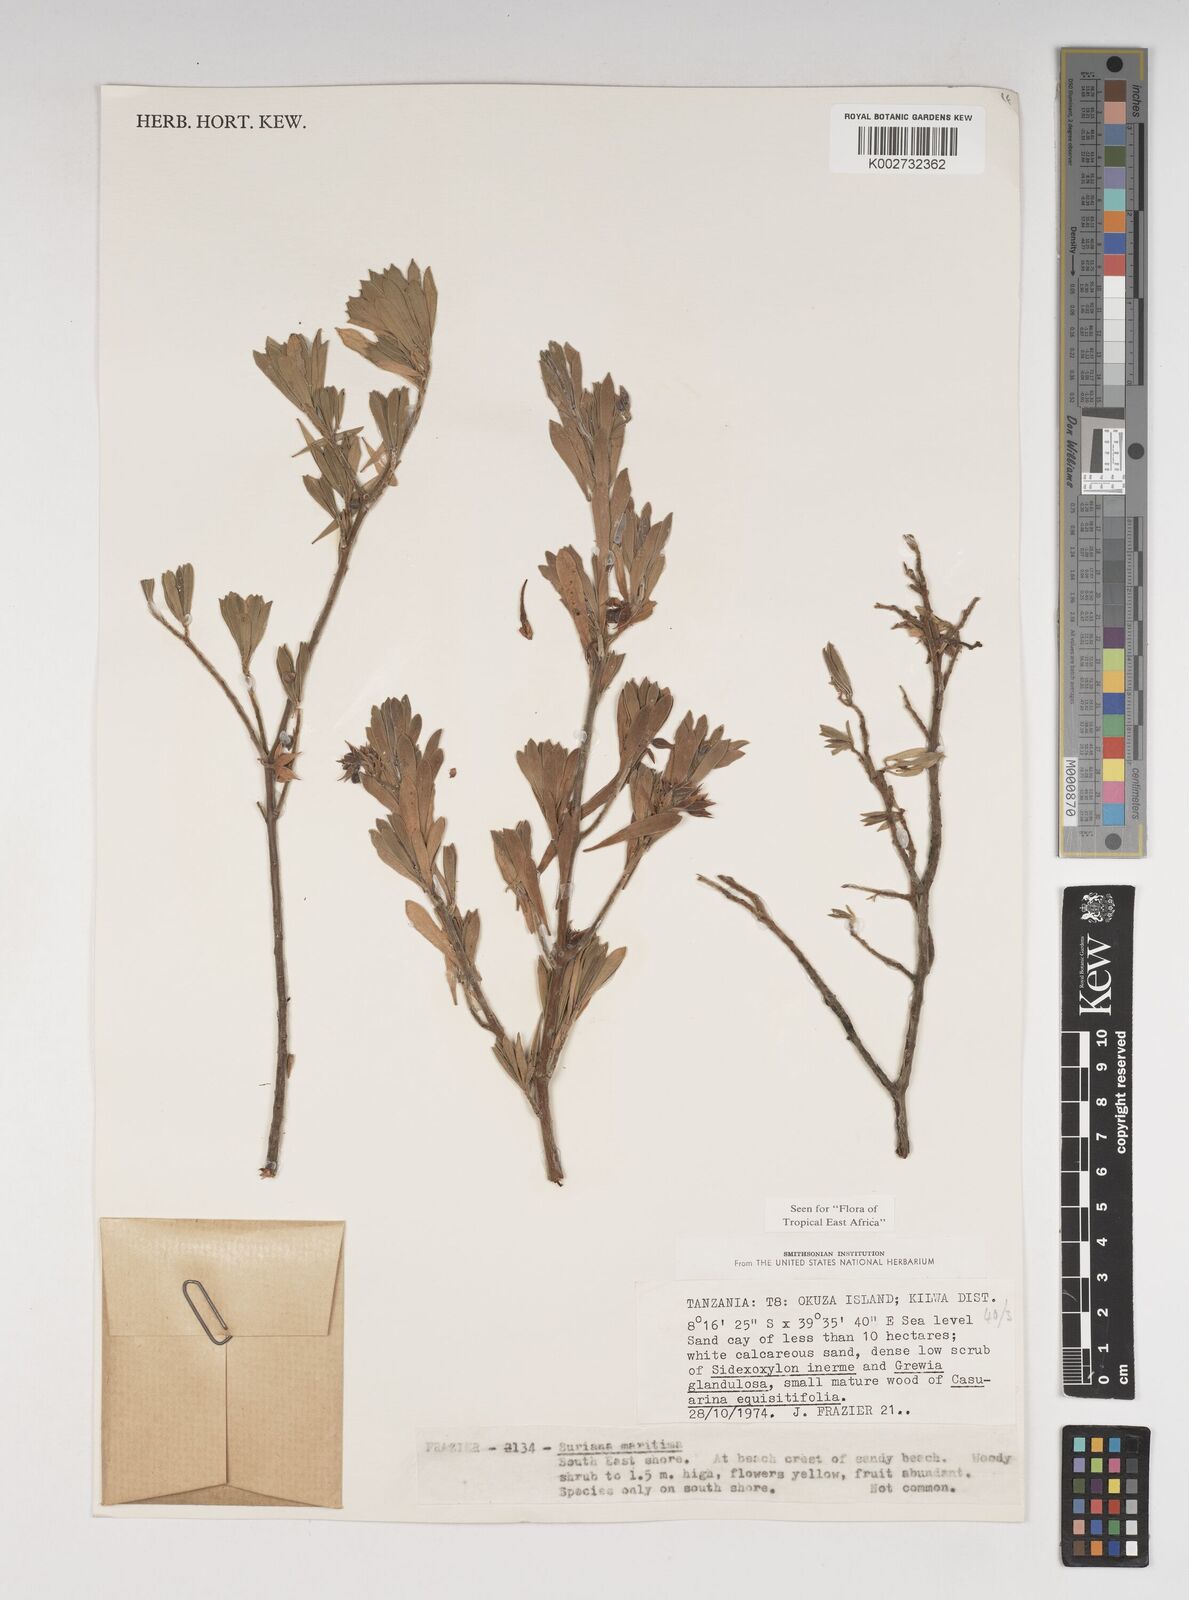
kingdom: Plantae
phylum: Tracheophyta
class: Magnoliopsida
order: Fabales
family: Surianaceae
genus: Suriana
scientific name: Suriana maritima
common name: Bay-cedar
